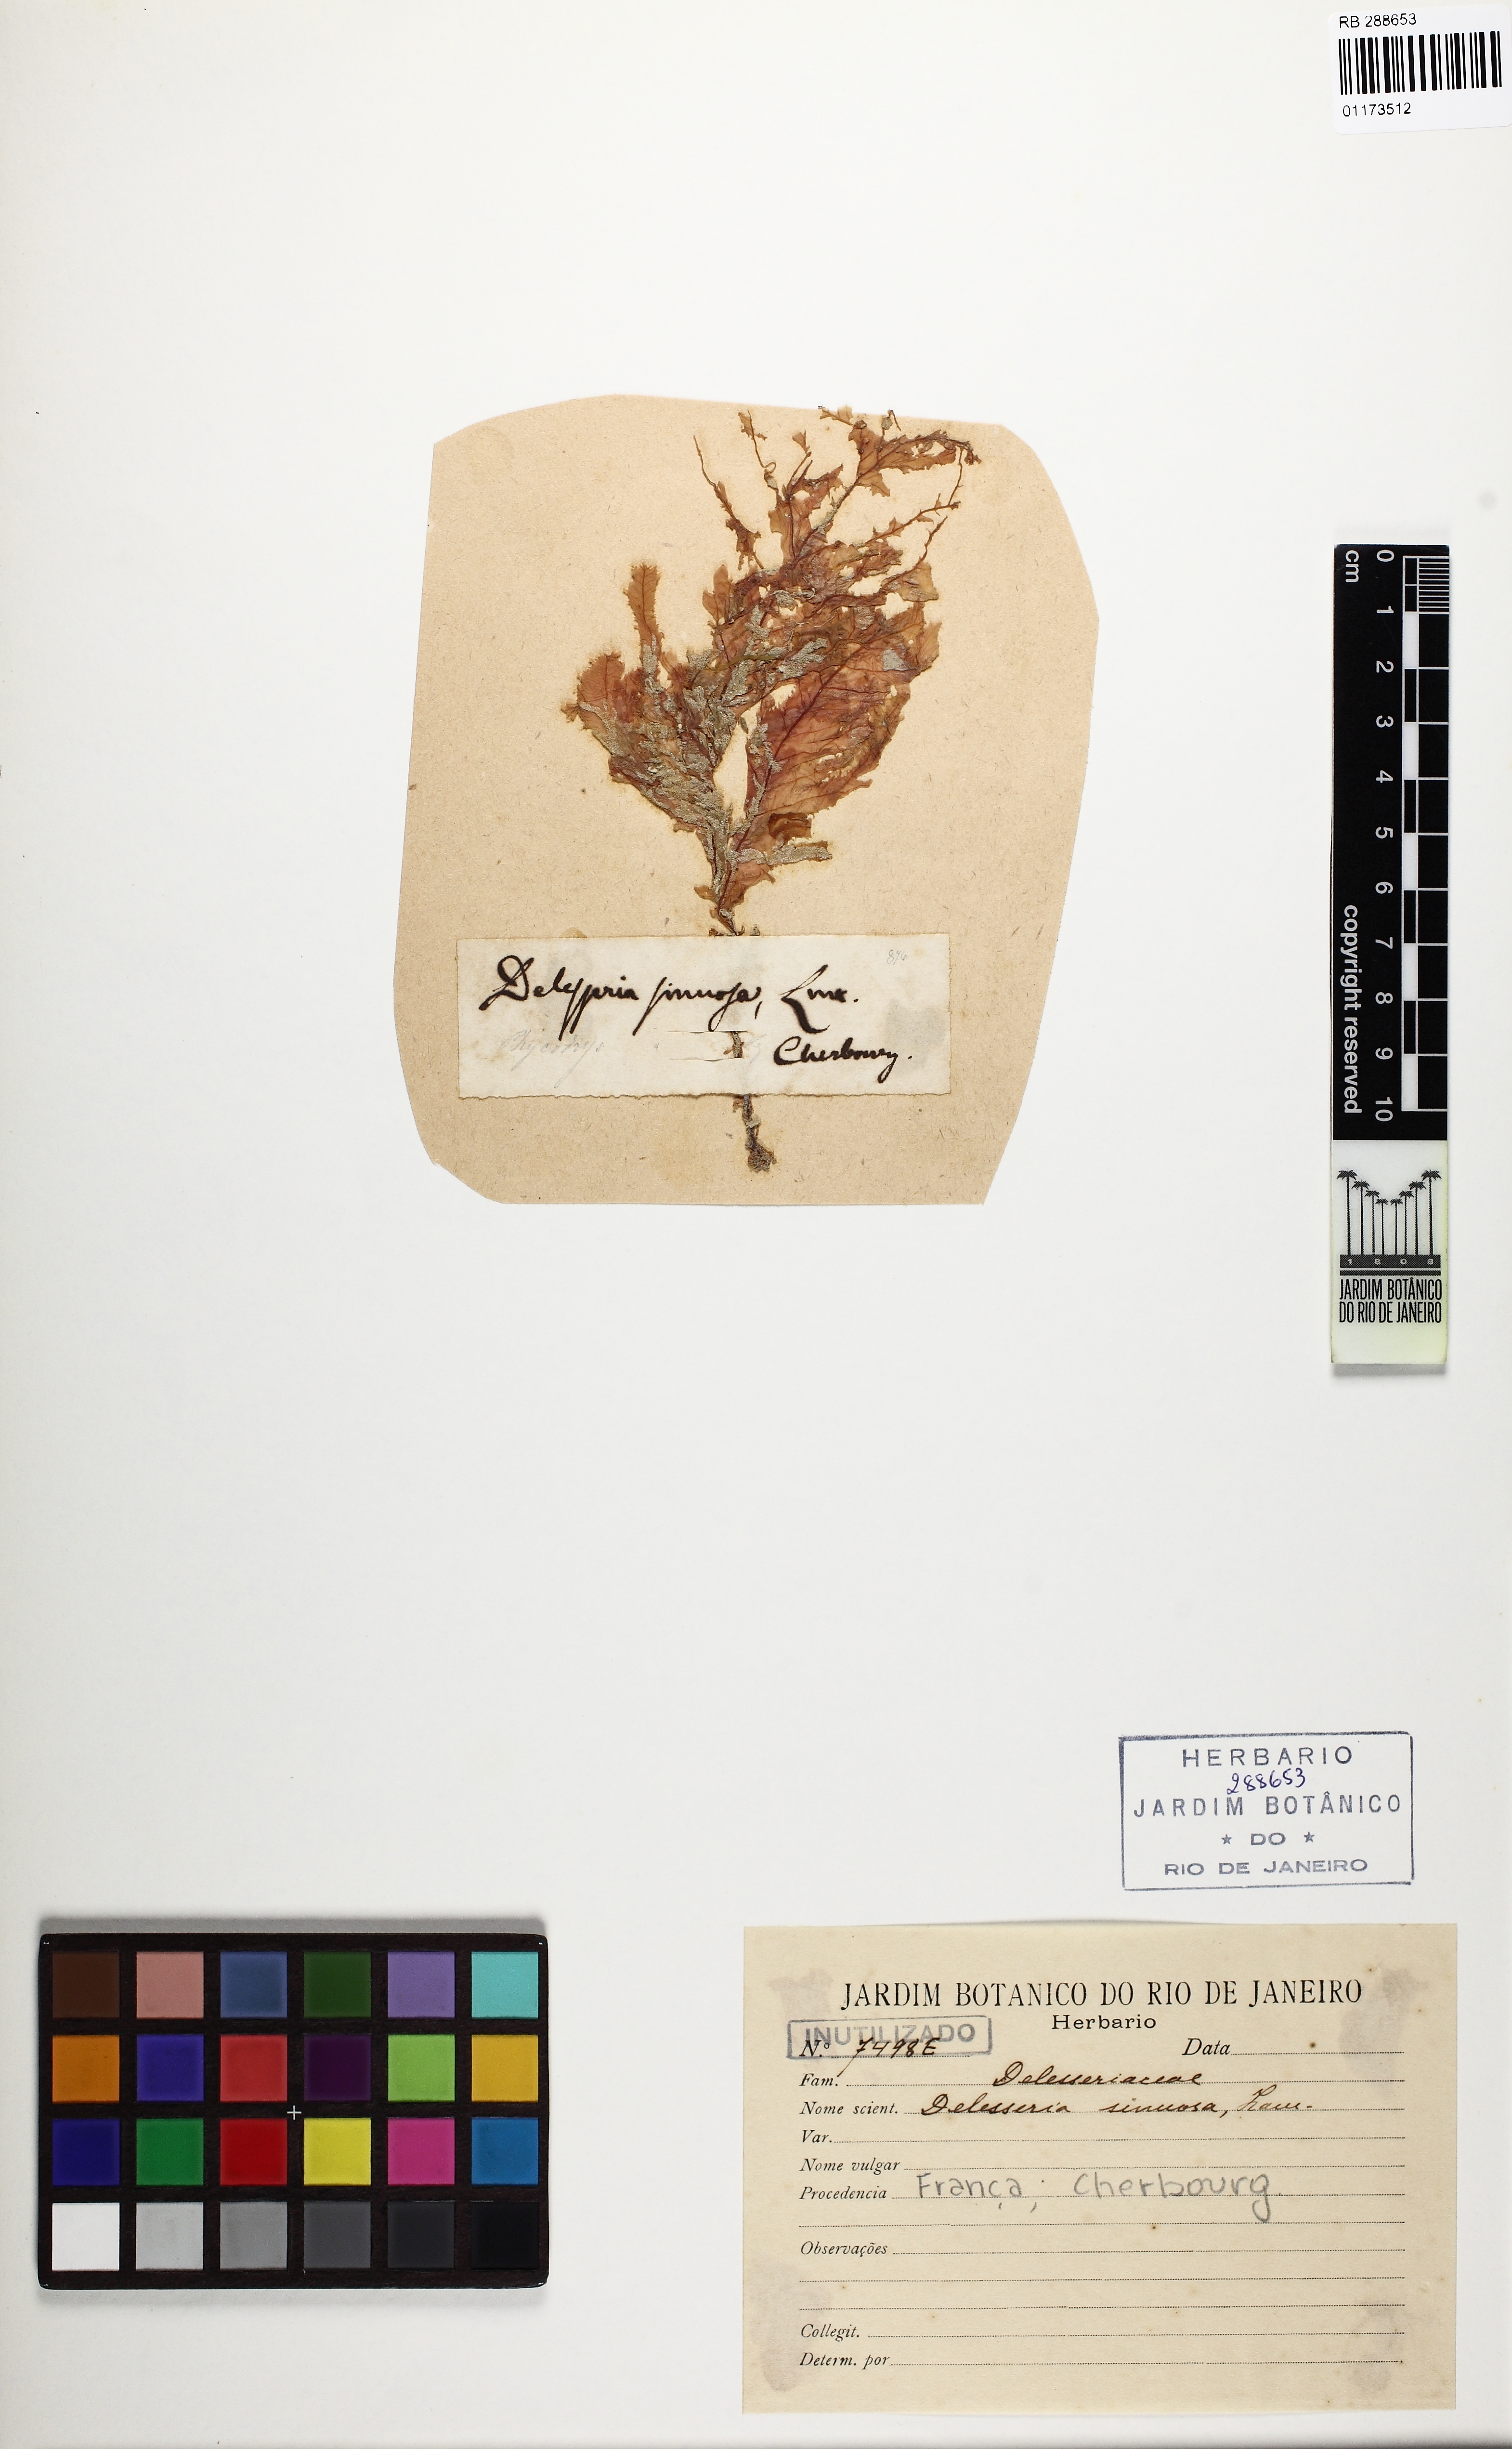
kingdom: Plantae
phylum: Rhodophyta
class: Florideophyceae
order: Ceramiales
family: Delesseriaceae
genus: Phycodrys
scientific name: Phycodrys rubens
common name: Sea oak
